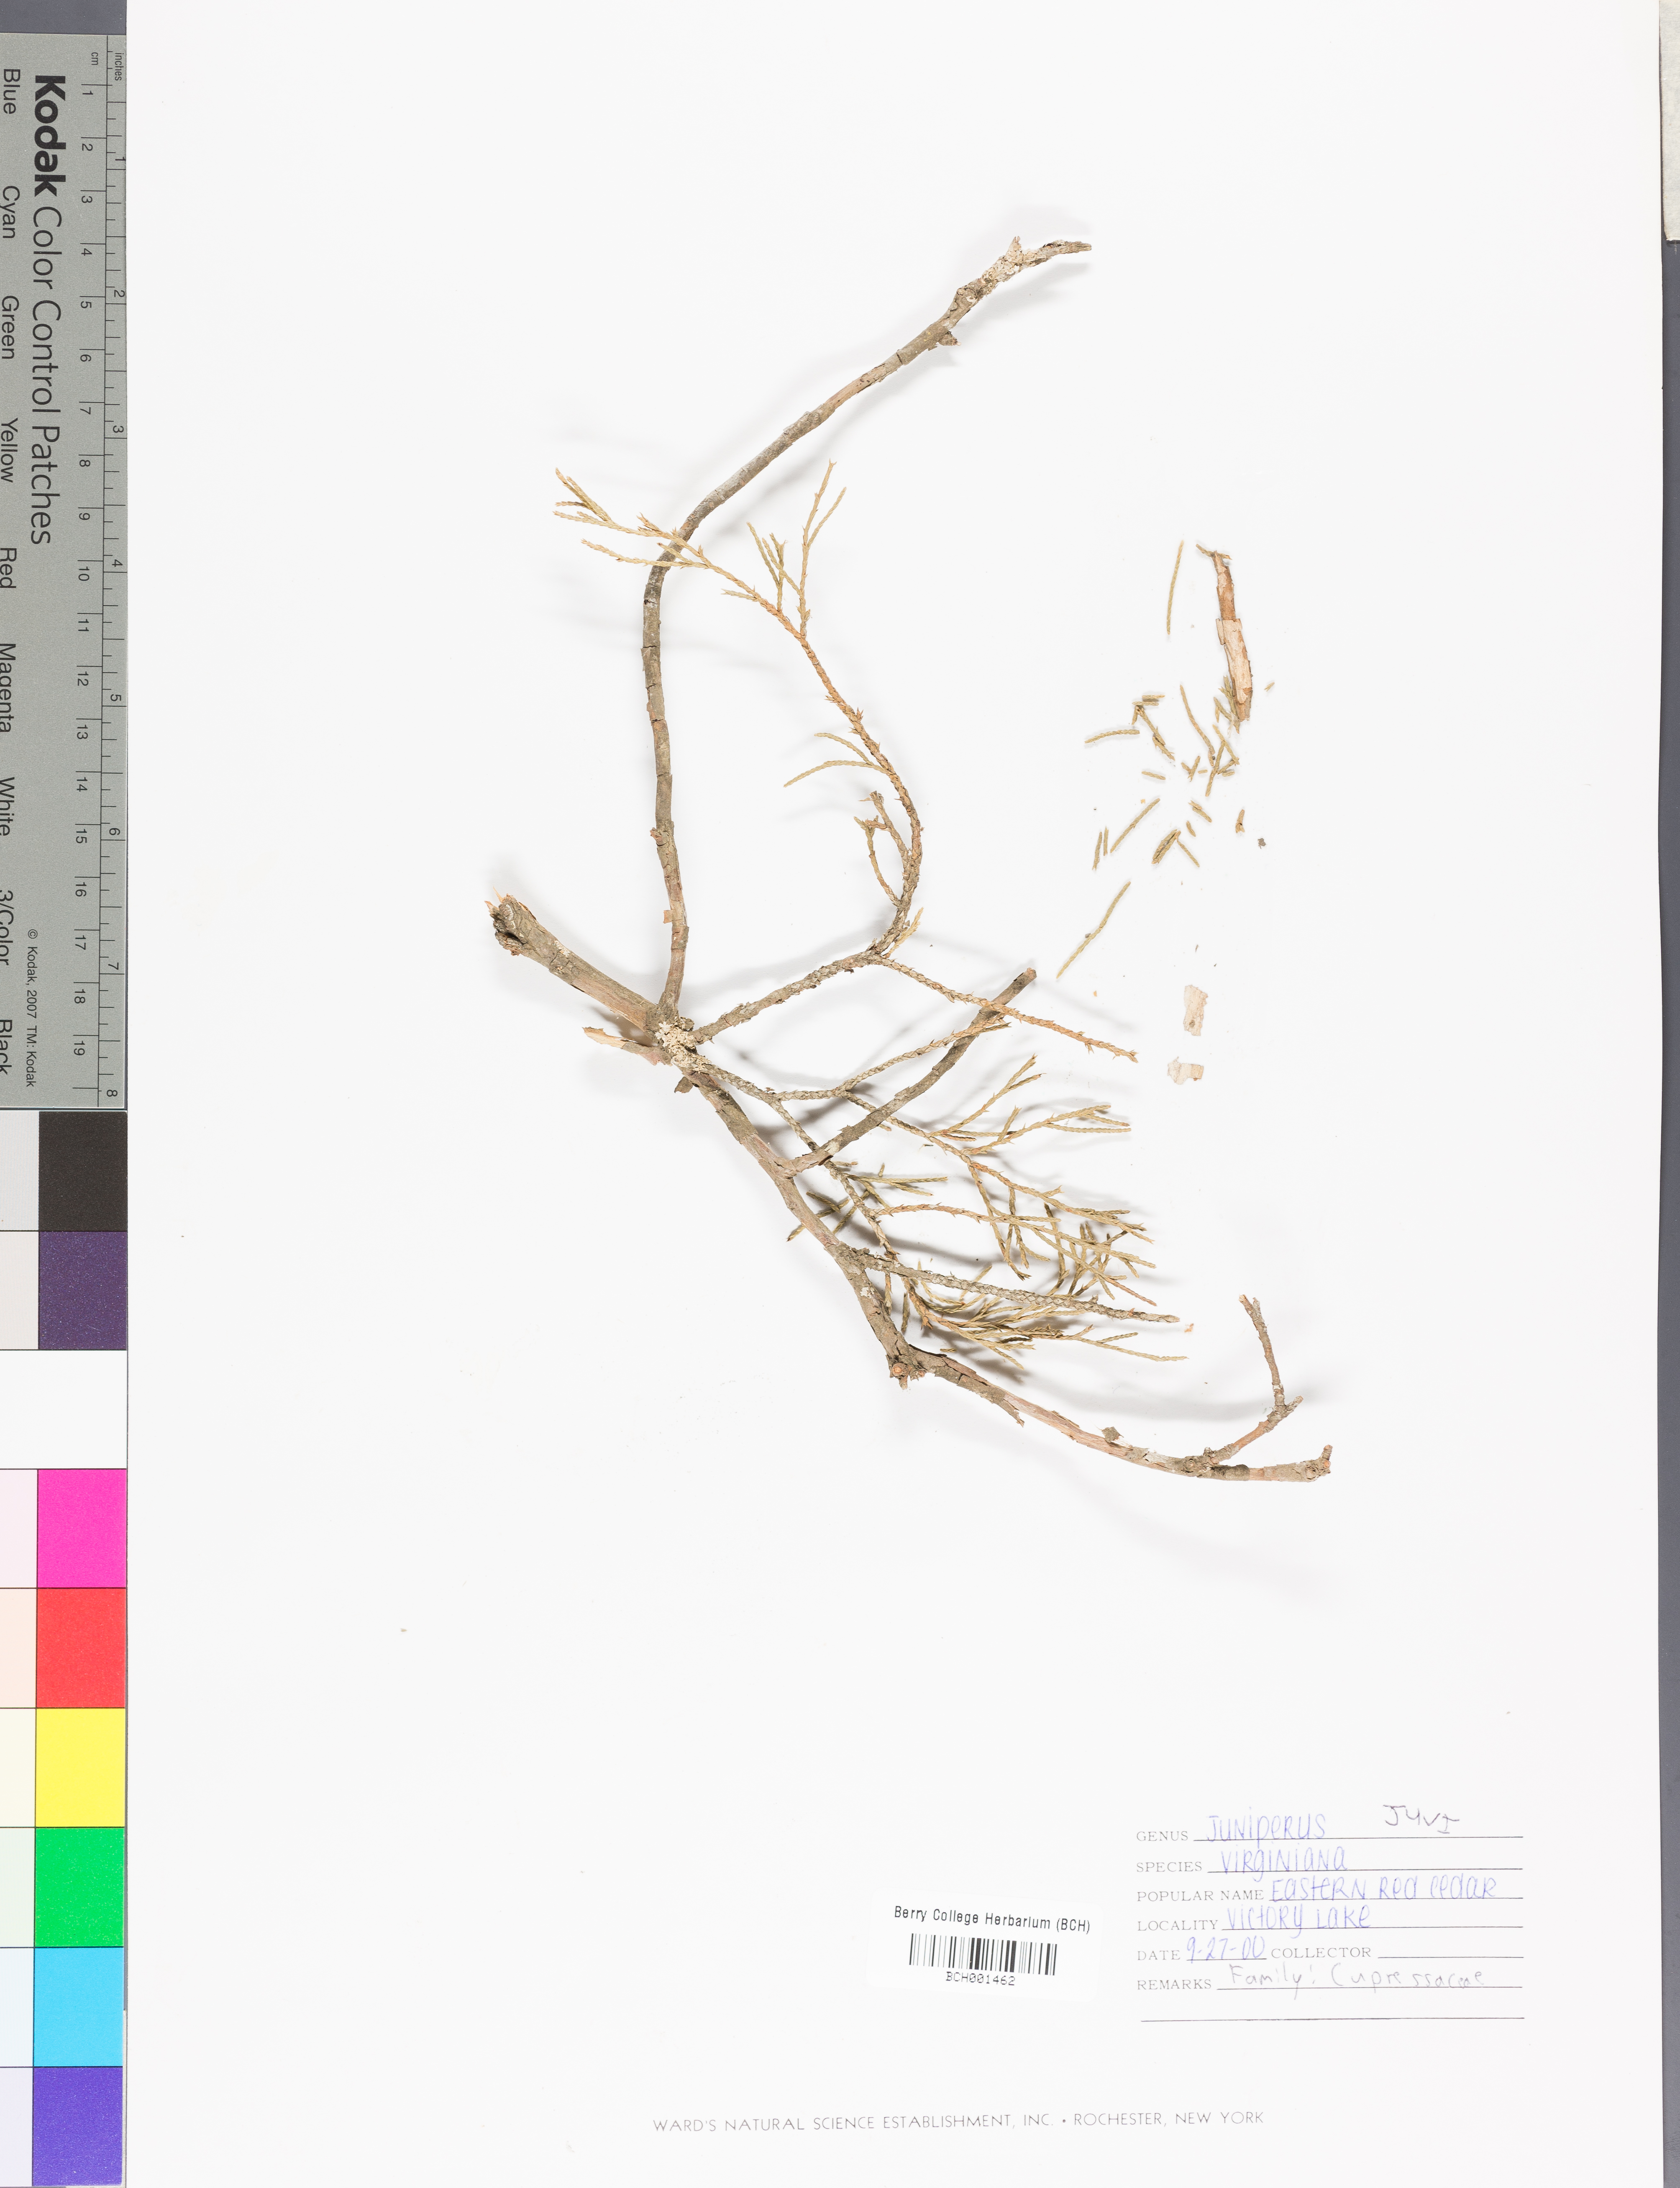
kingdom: Plantae
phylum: Tracheophyta
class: Pinopsida
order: Pinales
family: Cupressaceae
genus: Juniperus
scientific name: Juniperus virginiana
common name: Red juniper
